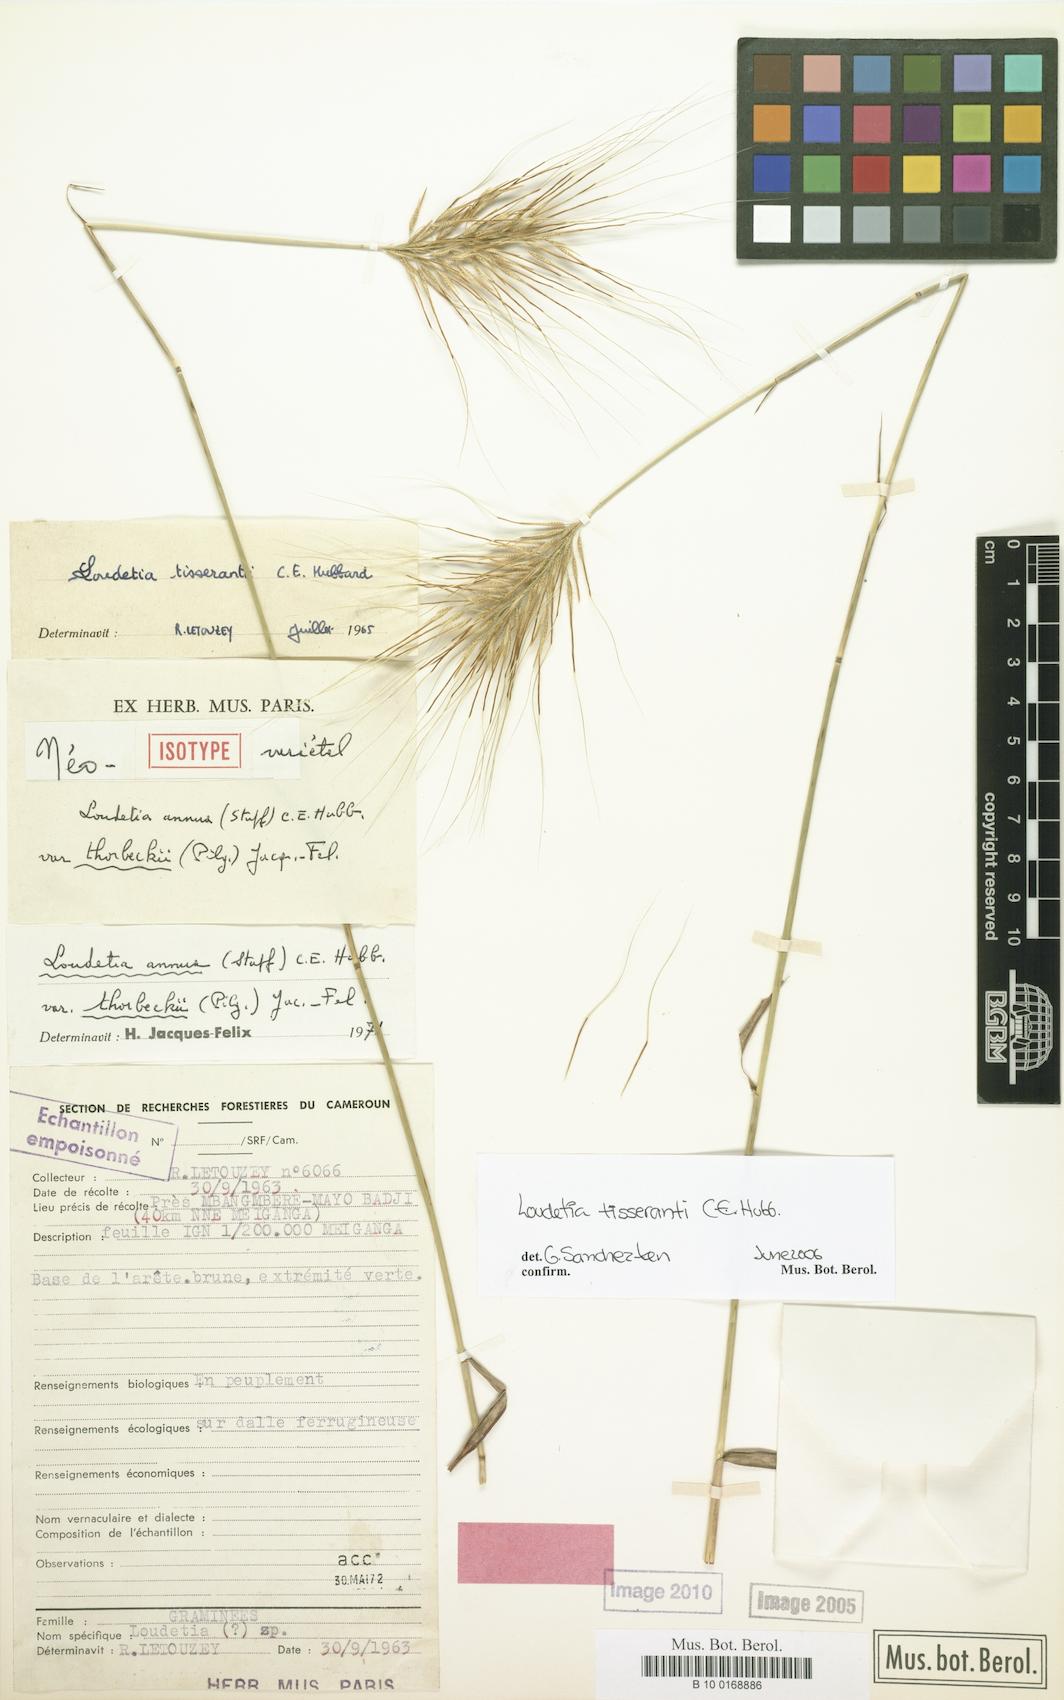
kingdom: Plantae
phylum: Tracheophyta
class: Liliopsida
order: Poales
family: Poaceae
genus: Loudetia
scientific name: Loudetia tisserantii
